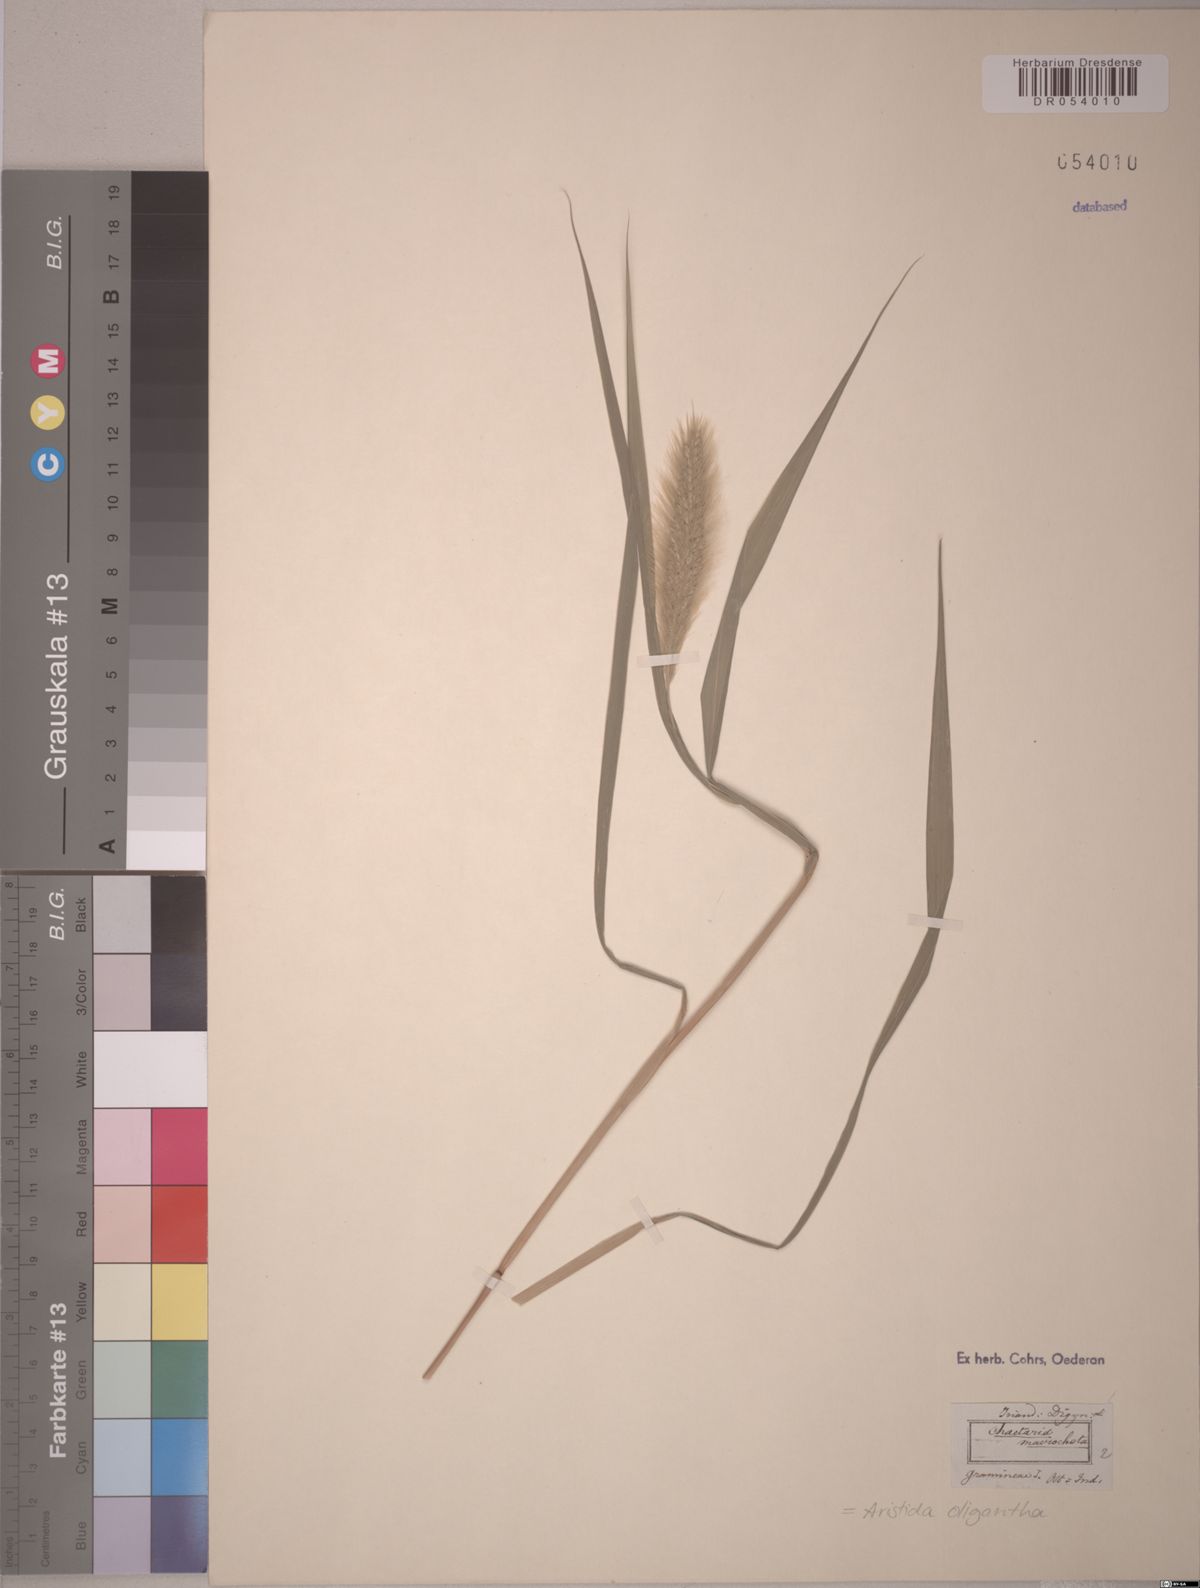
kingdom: Plantae
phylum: Tracheophyta
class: Liliopsida
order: Poales
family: Poaceae
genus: Aristida
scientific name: Aristida oligantha
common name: Few-flowered aristida
